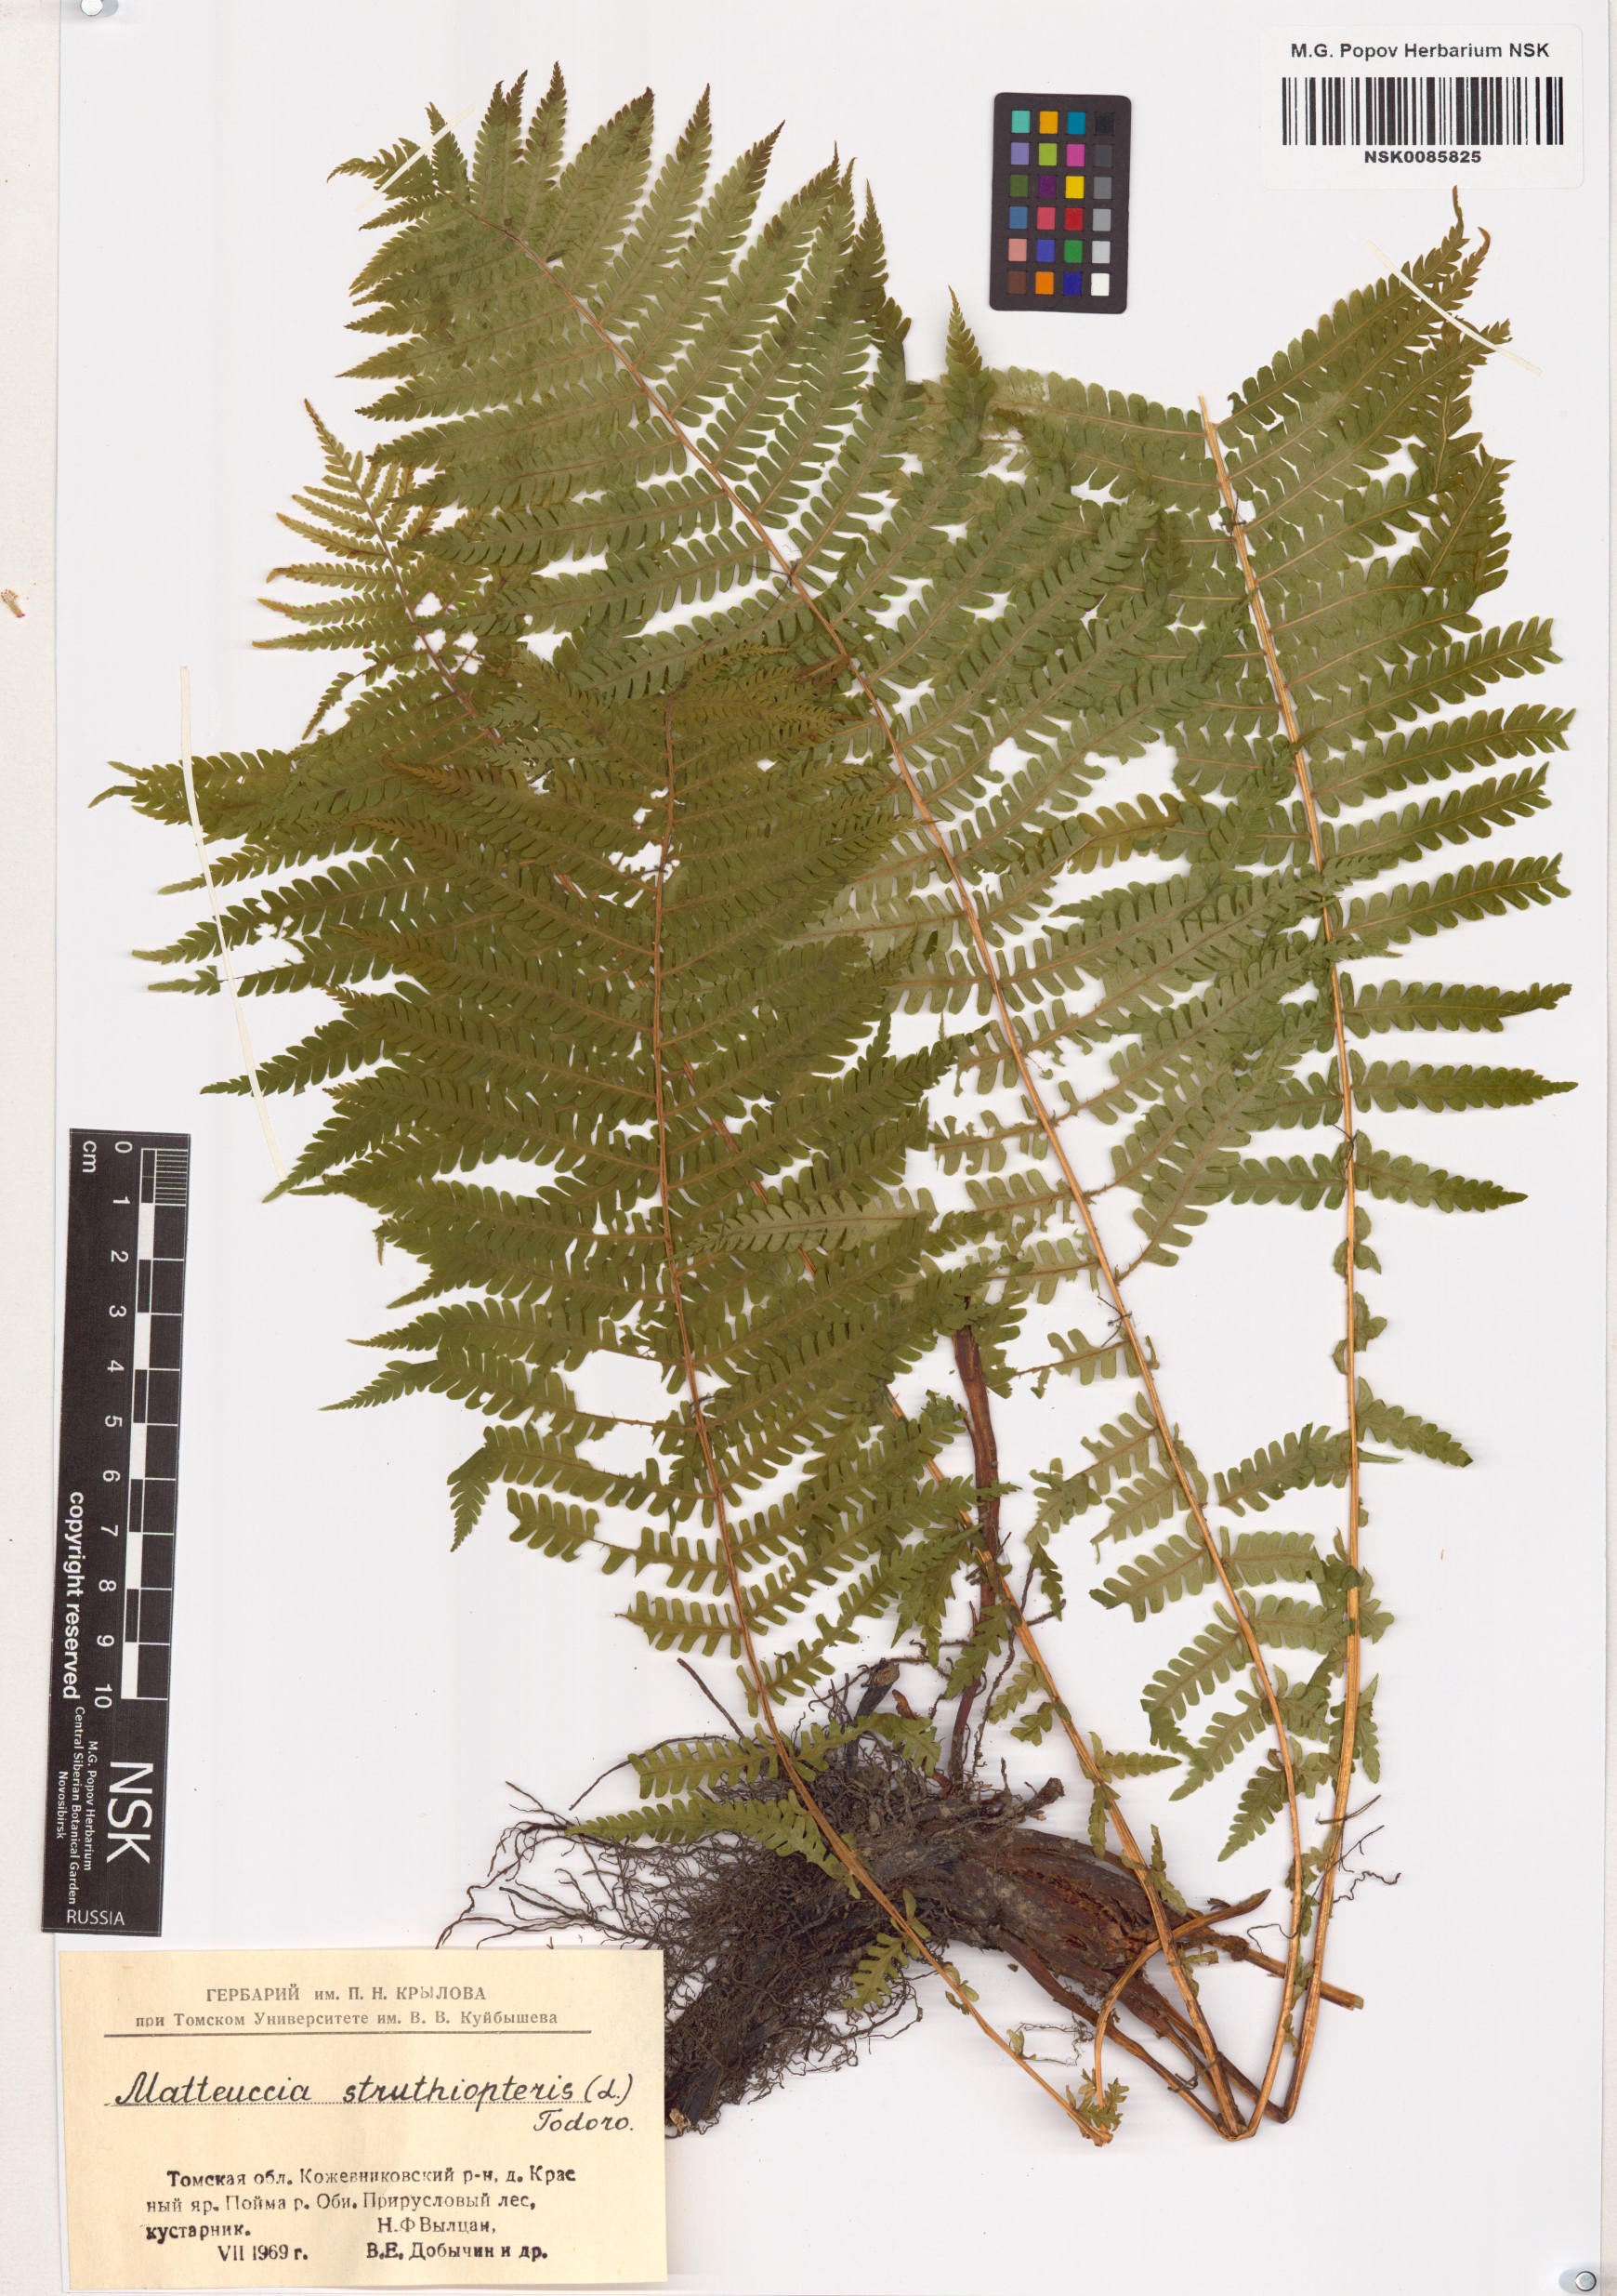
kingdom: Plantae
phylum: Tracheophyta
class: Polypodiopsida
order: Polypodiales
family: Onocleaceae
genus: Matteuccia
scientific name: Matteuccia struthiopteris
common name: Ostrich fern
